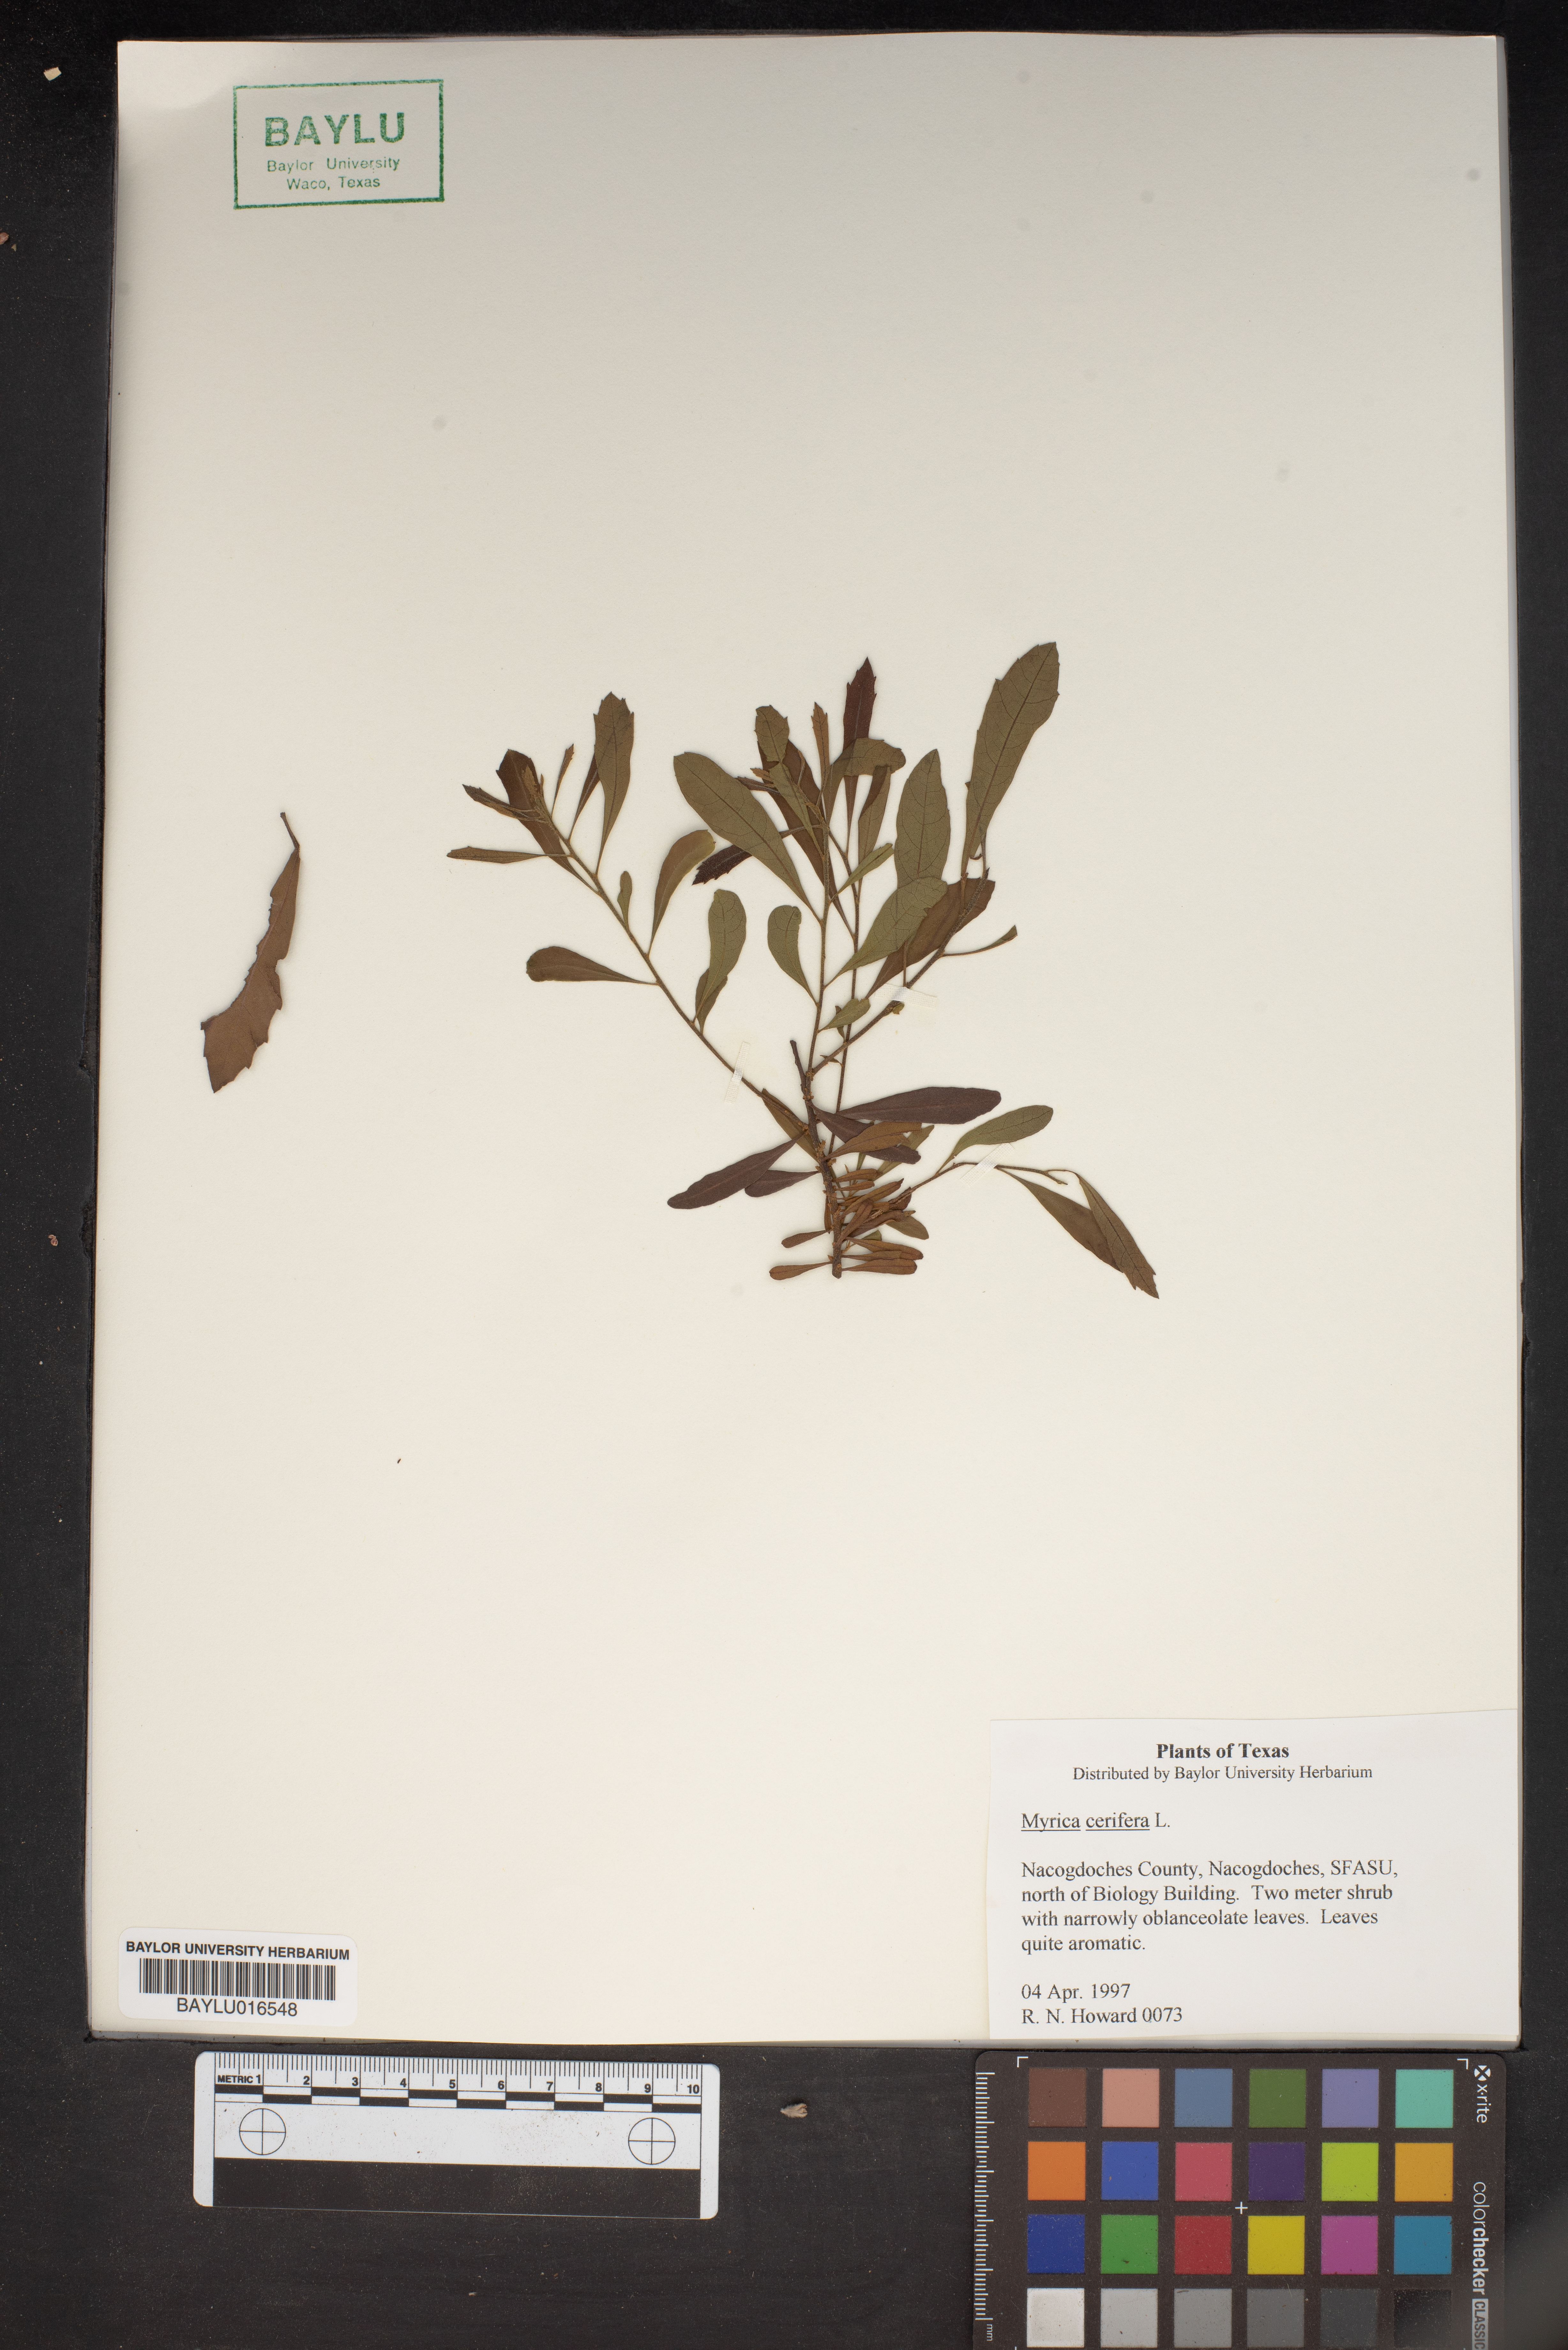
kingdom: Plantae
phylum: Tracheophyta
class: Magnoliopsida
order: Fagales
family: Myricaceae
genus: Morella
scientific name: Morella cerifera
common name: Wax myrtle
